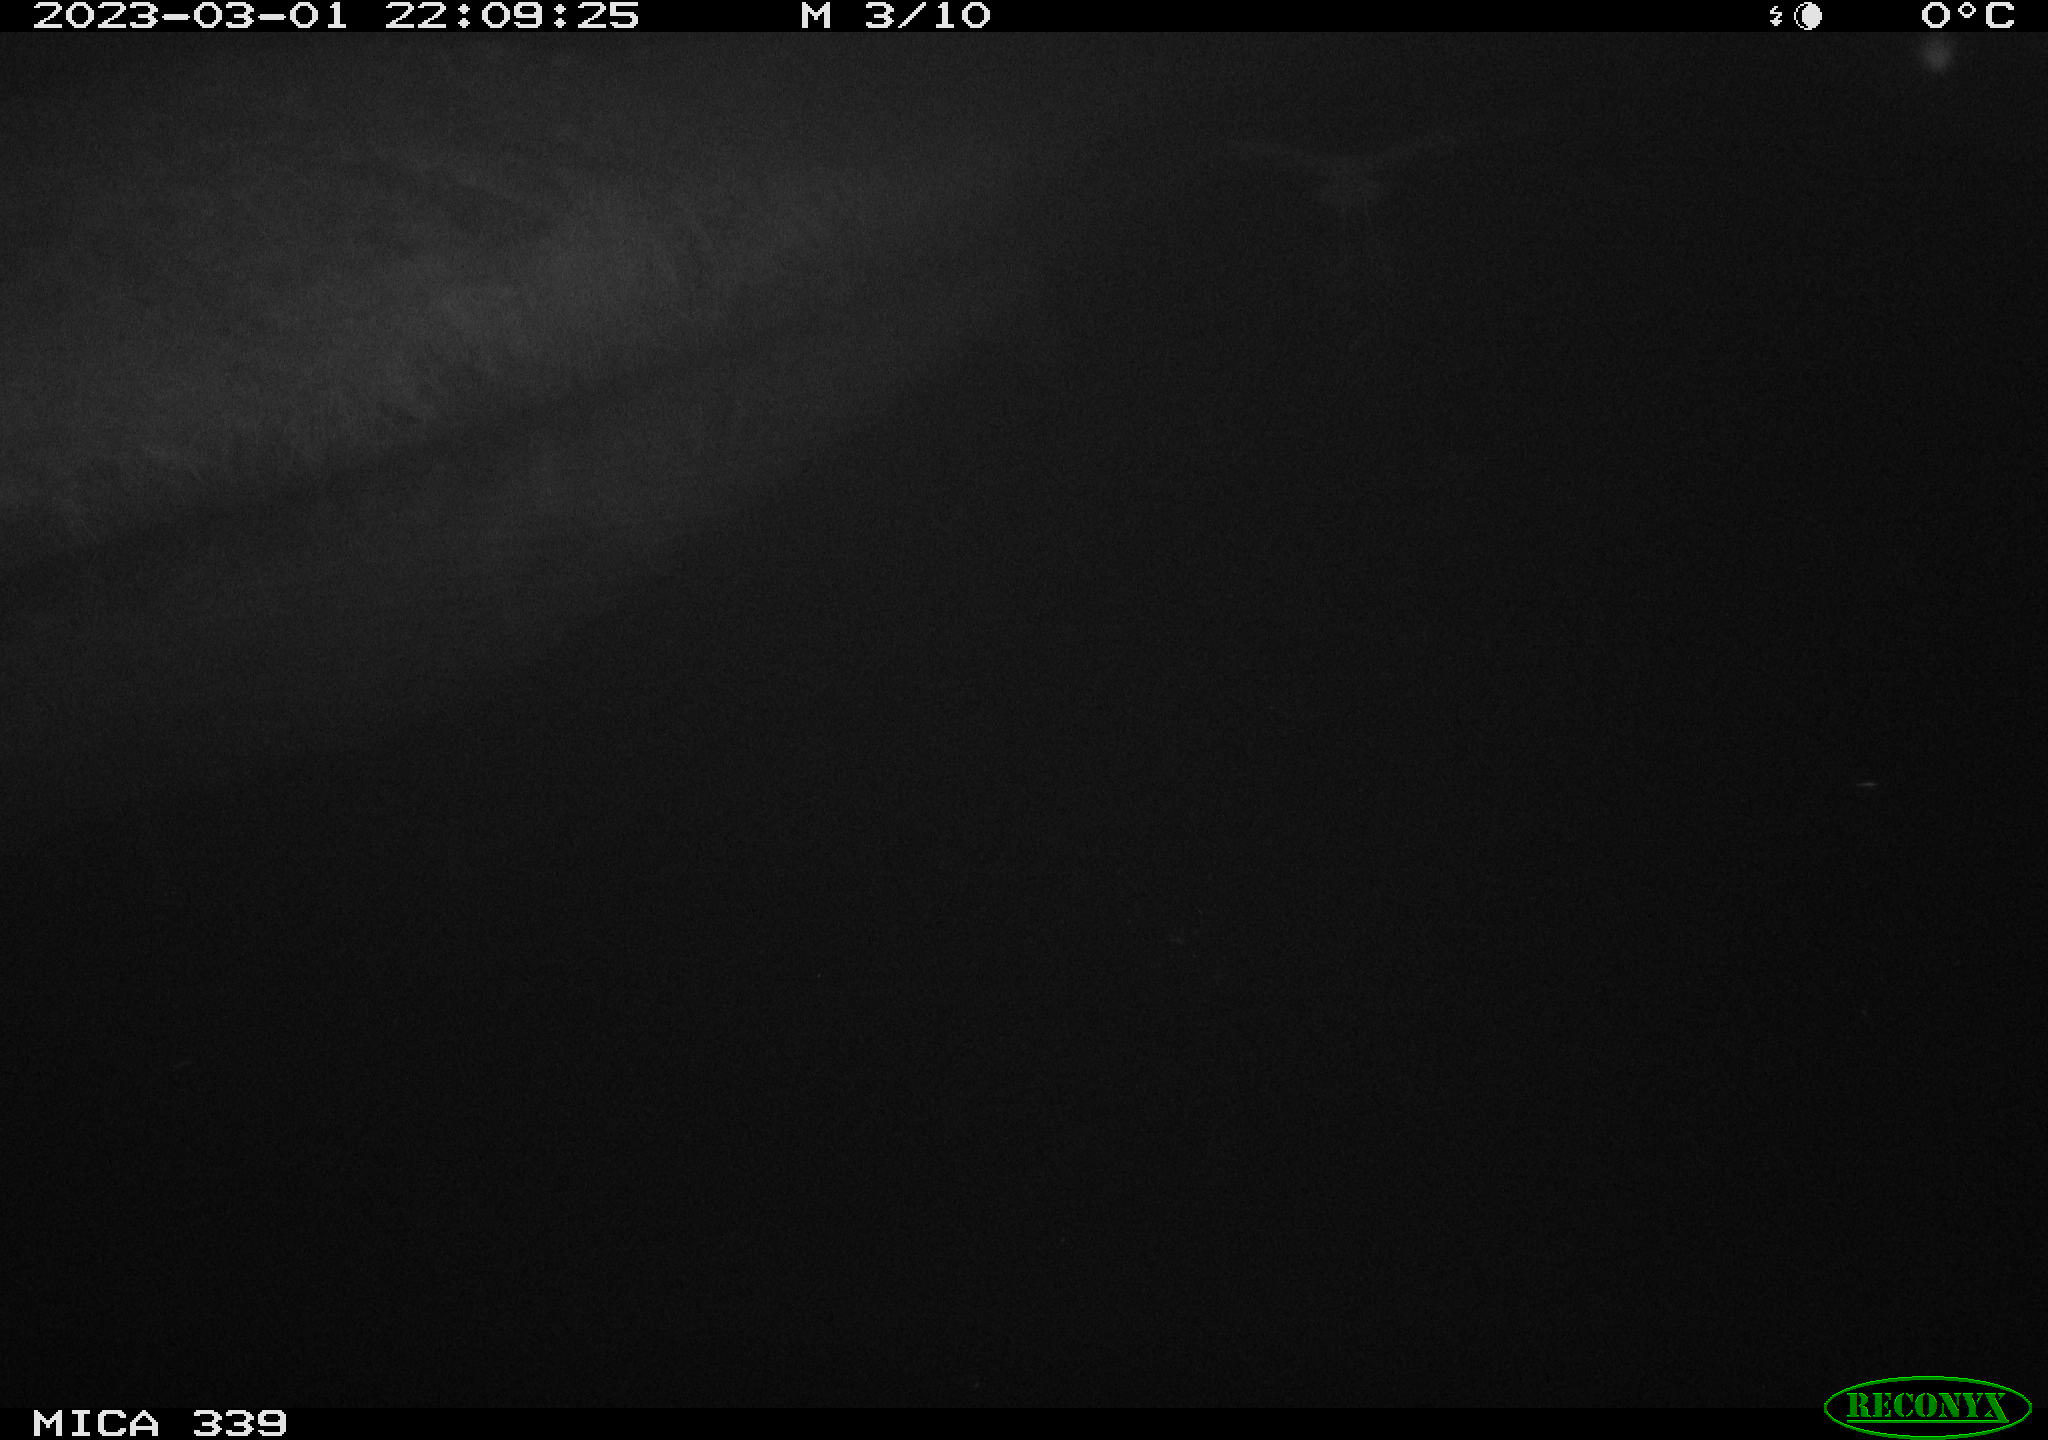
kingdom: Animalia
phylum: Chordata
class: Aves
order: Pelecaniformes
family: Ardeidae
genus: Ardea
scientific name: Ardea cinerea
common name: Grey heron
